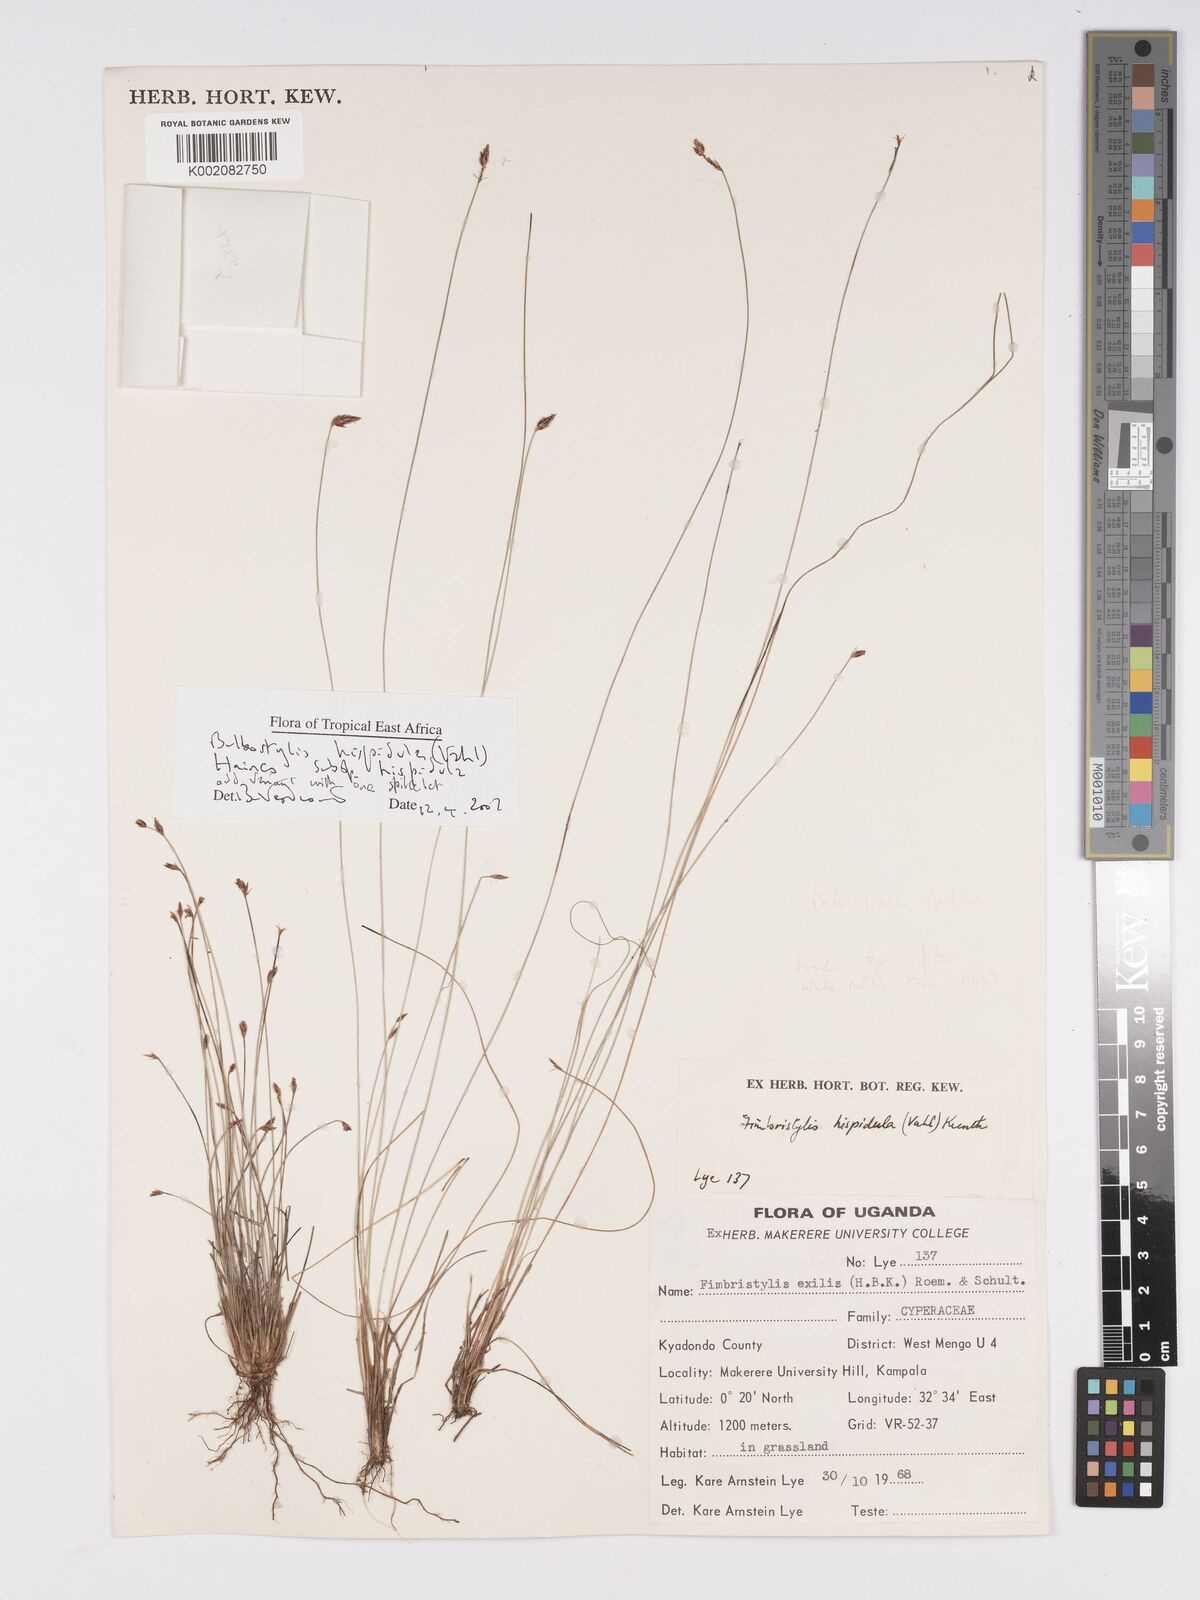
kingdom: Plantae
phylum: Tracheophyta
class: Liliopsida
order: Poales
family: Cyperaceae
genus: Bulbostylis
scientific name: Bulbostylis hispidula
